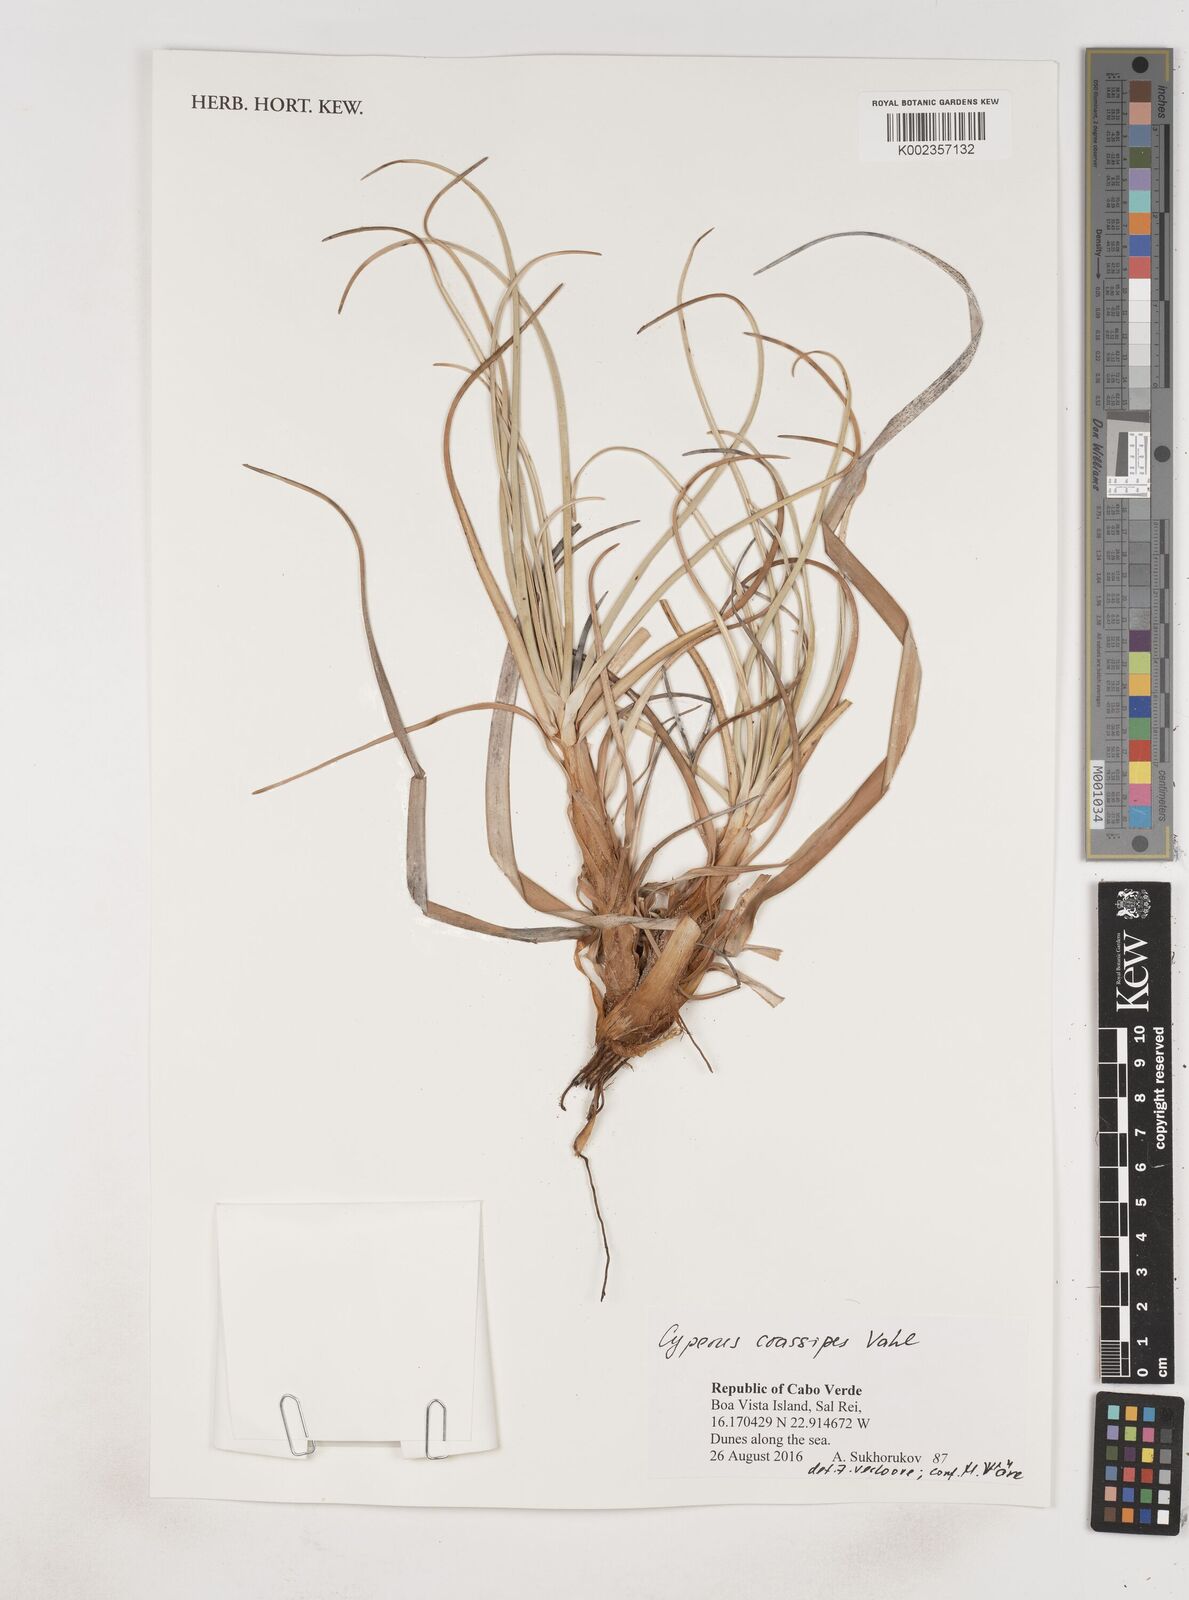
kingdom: Plantae
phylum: Tracheophyta
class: Liliopsida
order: Poales
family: Cyperaceae
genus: Cyperus
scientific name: Cyperus crassipes
